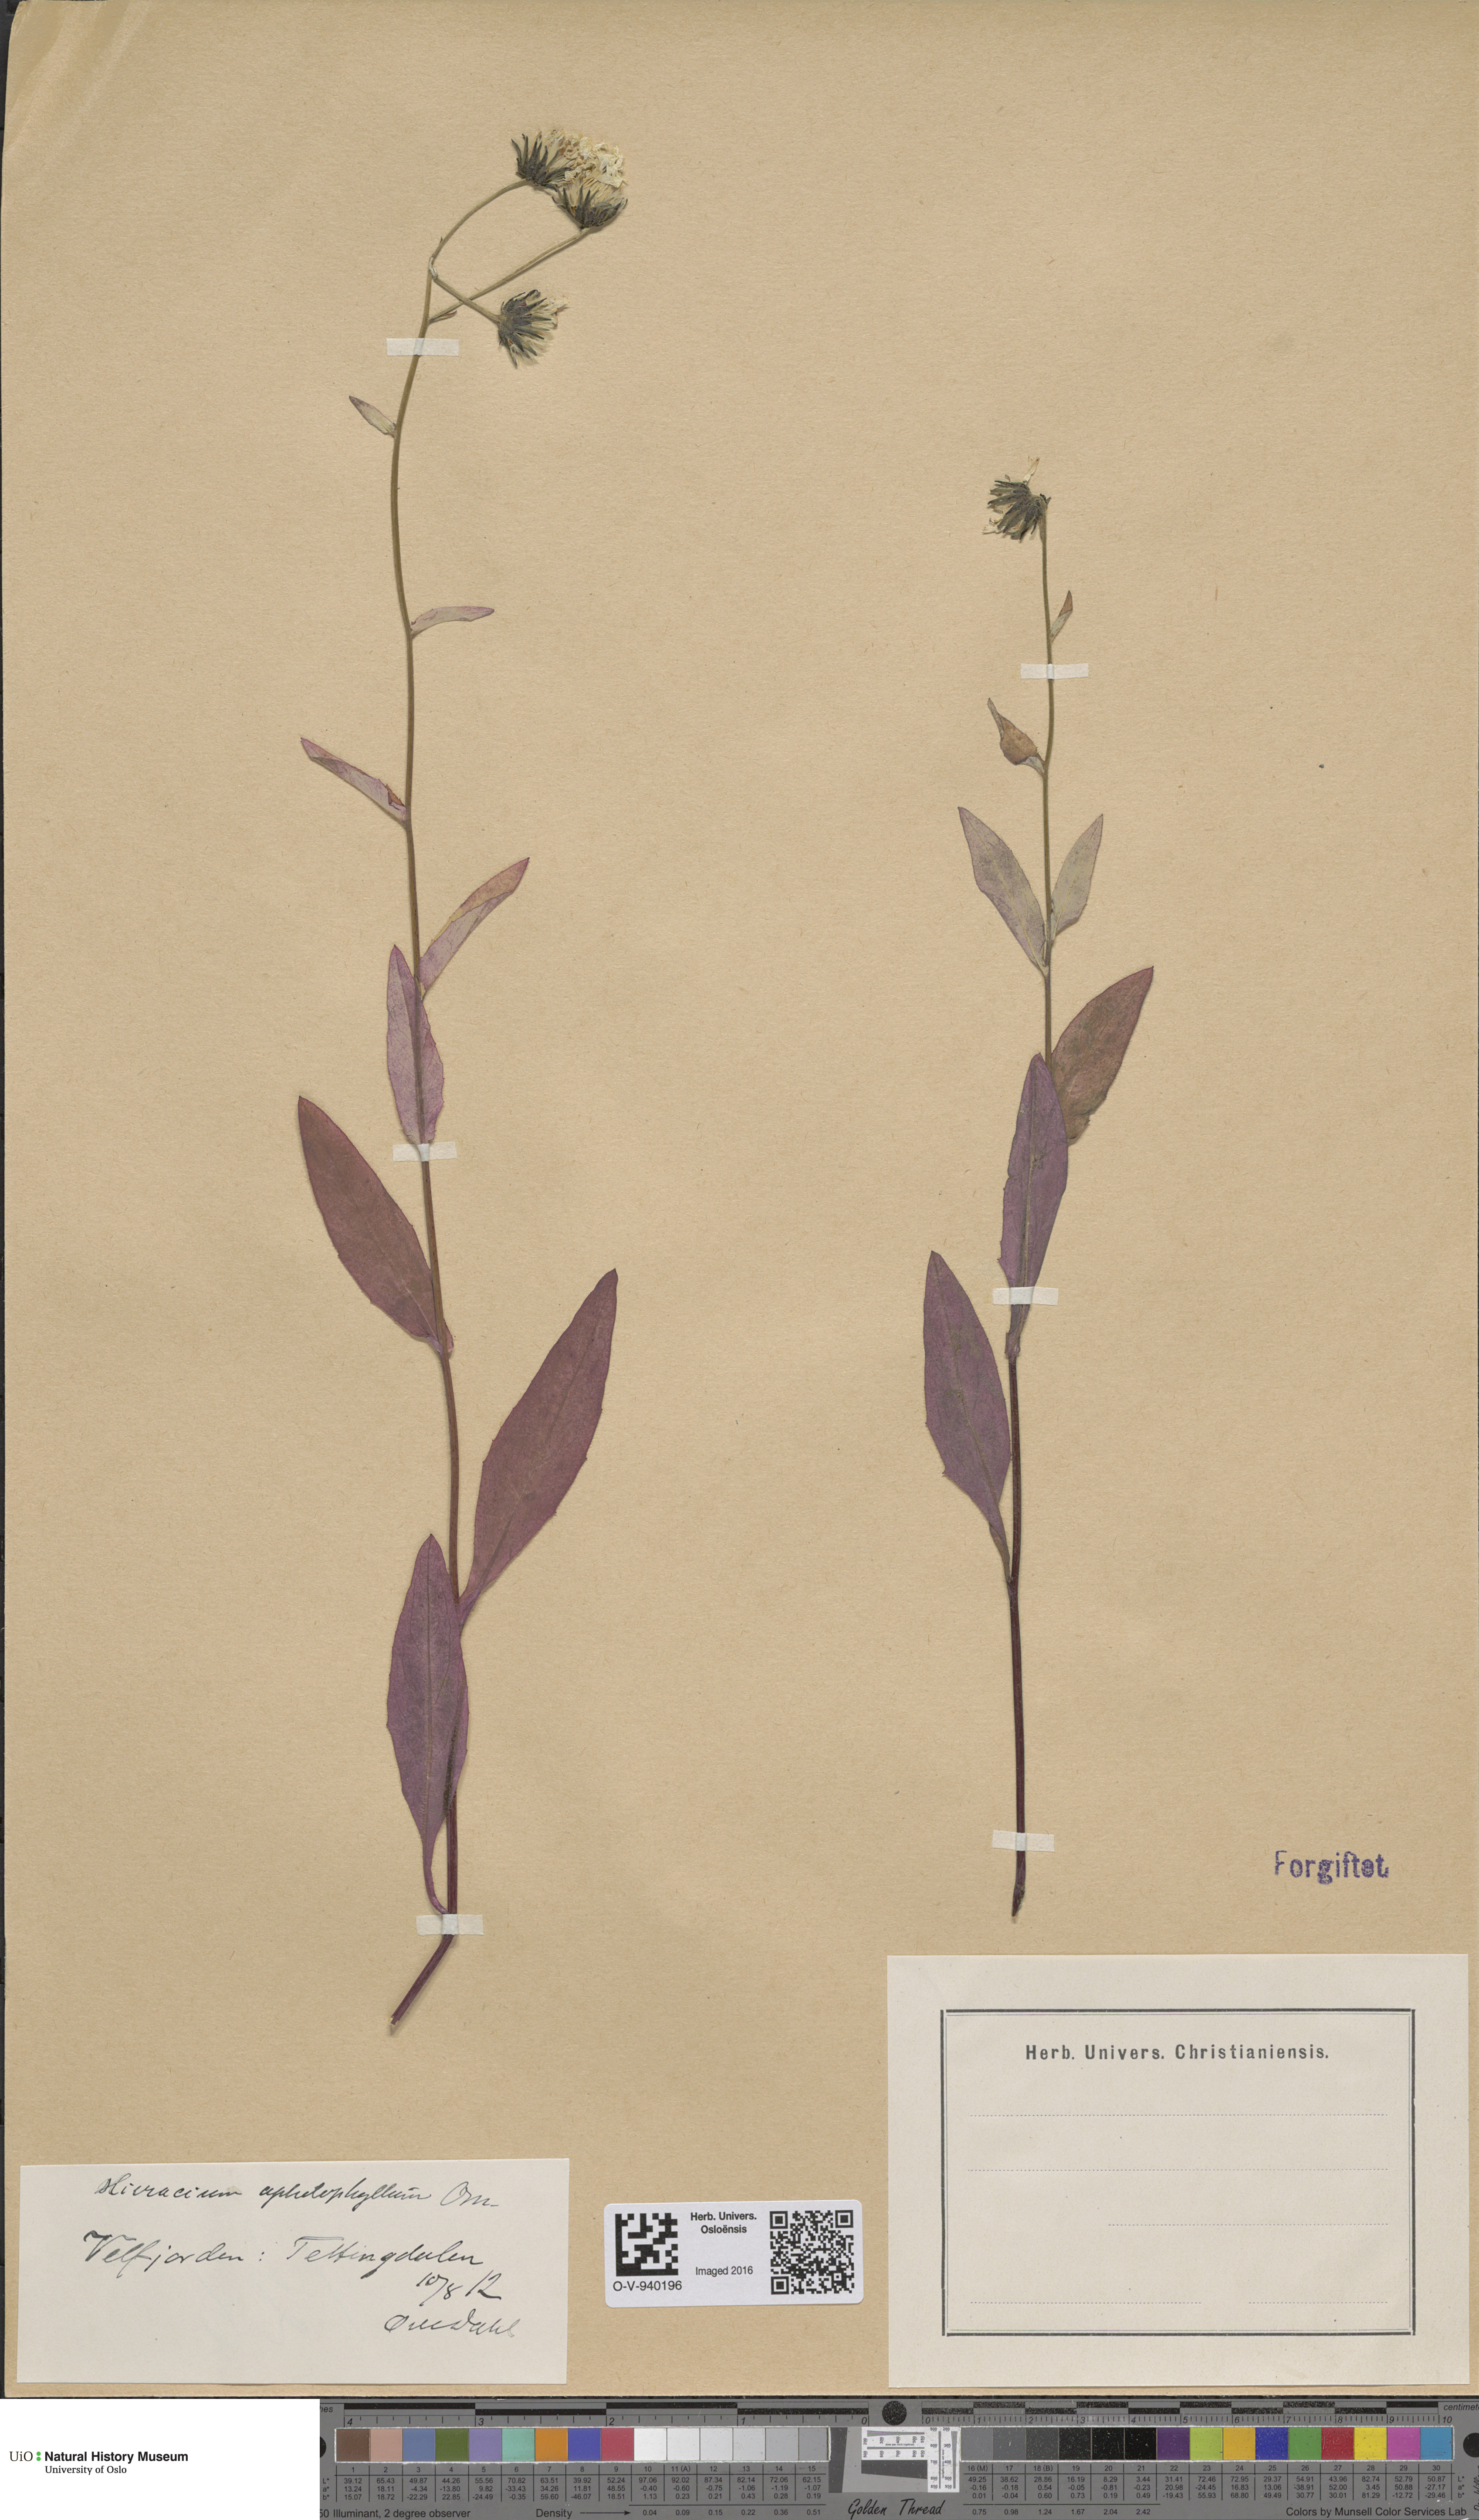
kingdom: Plantae
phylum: Tracheophyta
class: Magnoliopsida
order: Asterales
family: Asteraceae
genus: Hieracium
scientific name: Hieracium dovrense
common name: Dovre hawkweed
